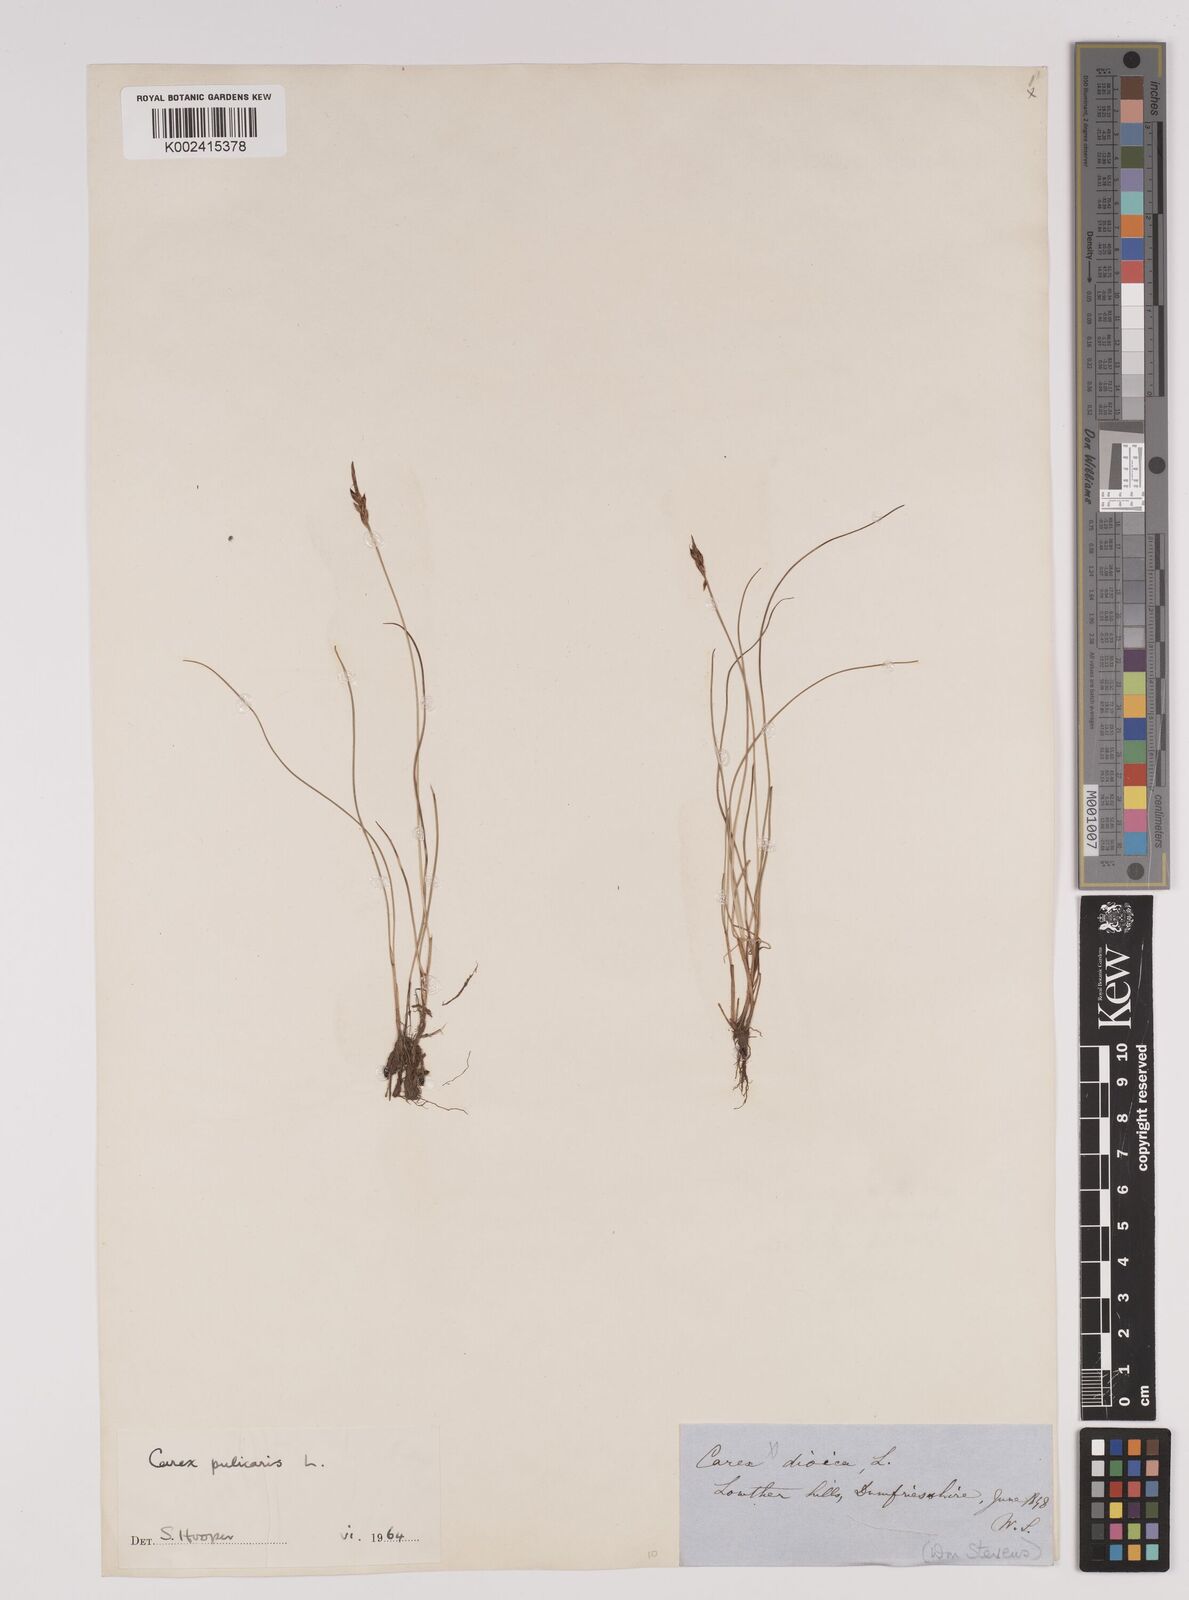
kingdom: Plantae
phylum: Tracheophyta
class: Liliopsida
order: Poales
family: Cyperaceae
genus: Carex
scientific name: Carex pulicaris
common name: Flea sedge
